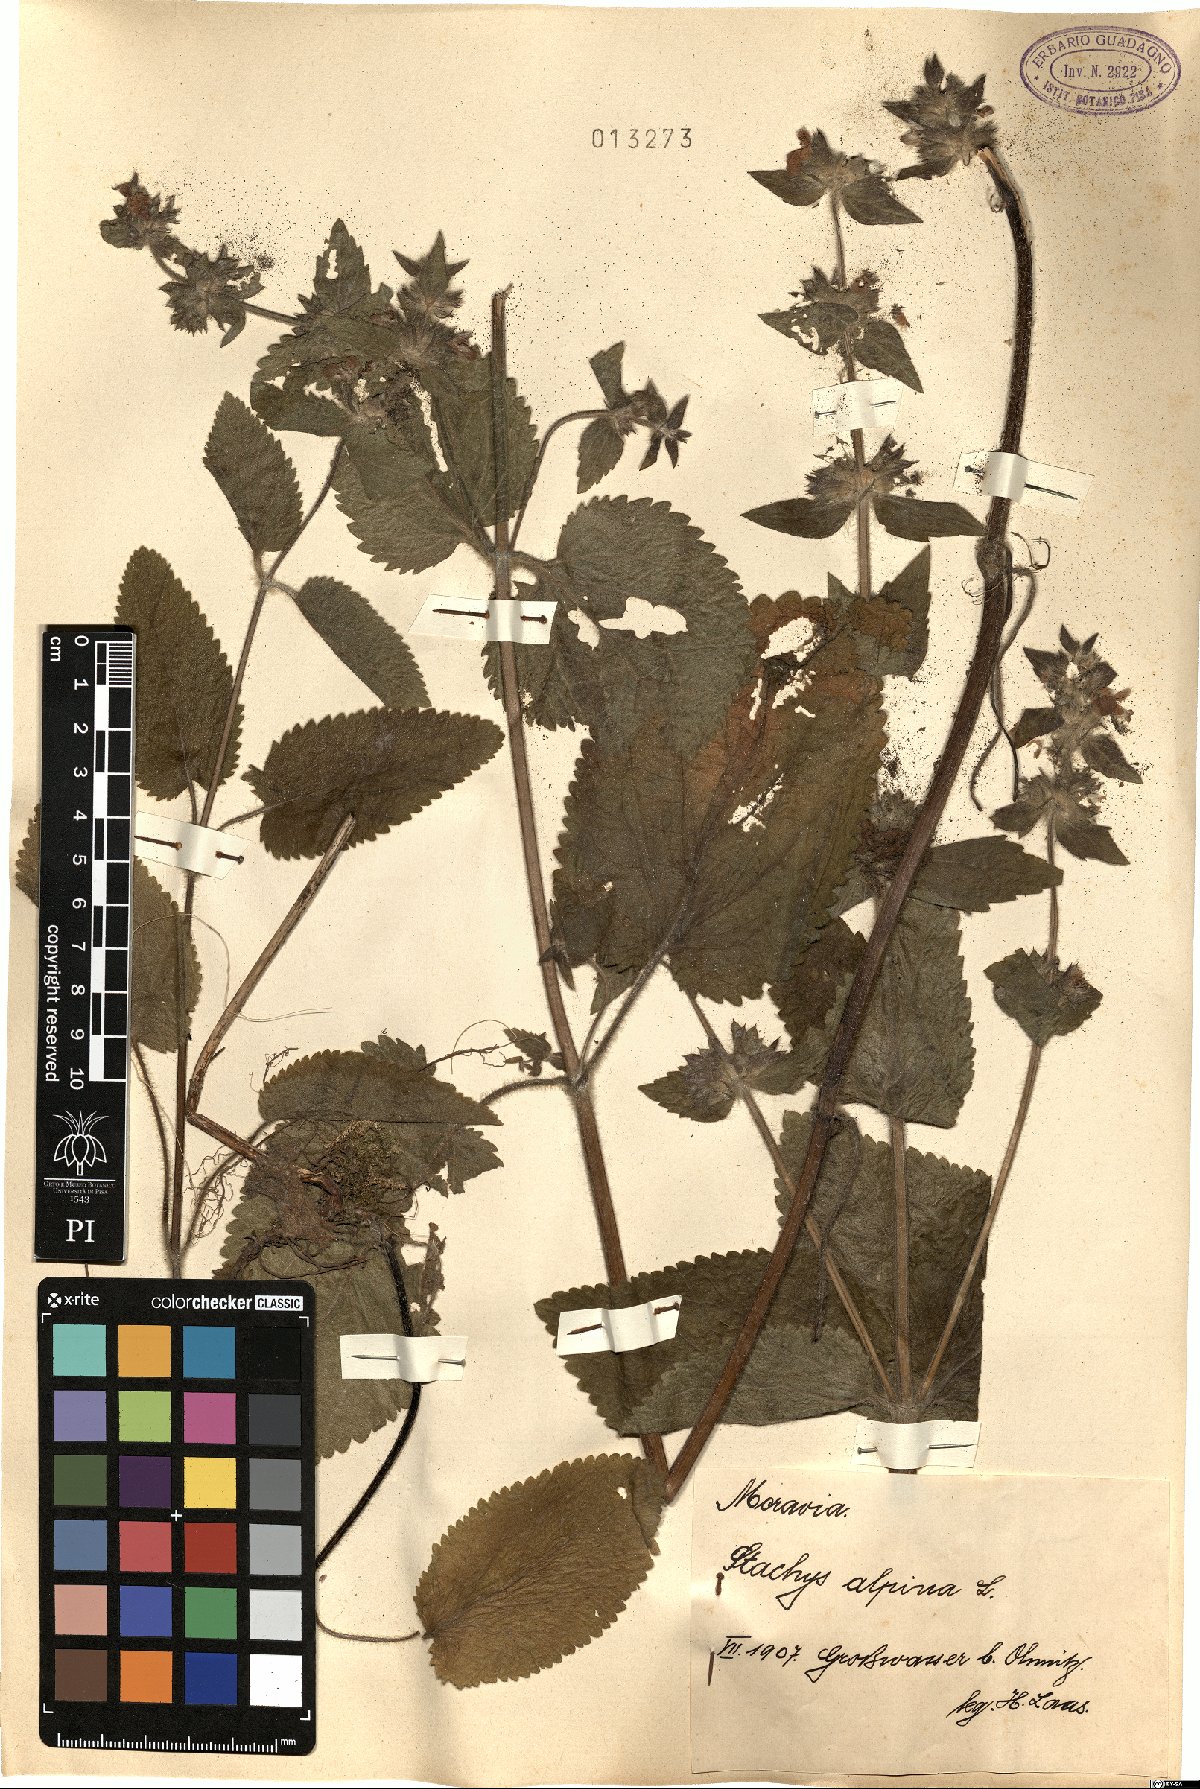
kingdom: Plantae
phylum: Tracheophyta
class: Magnoliopsida
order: Lamiales
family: Lamiaceae
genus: Stachys
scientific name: Stachys alpina
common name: Limestone woundwort
